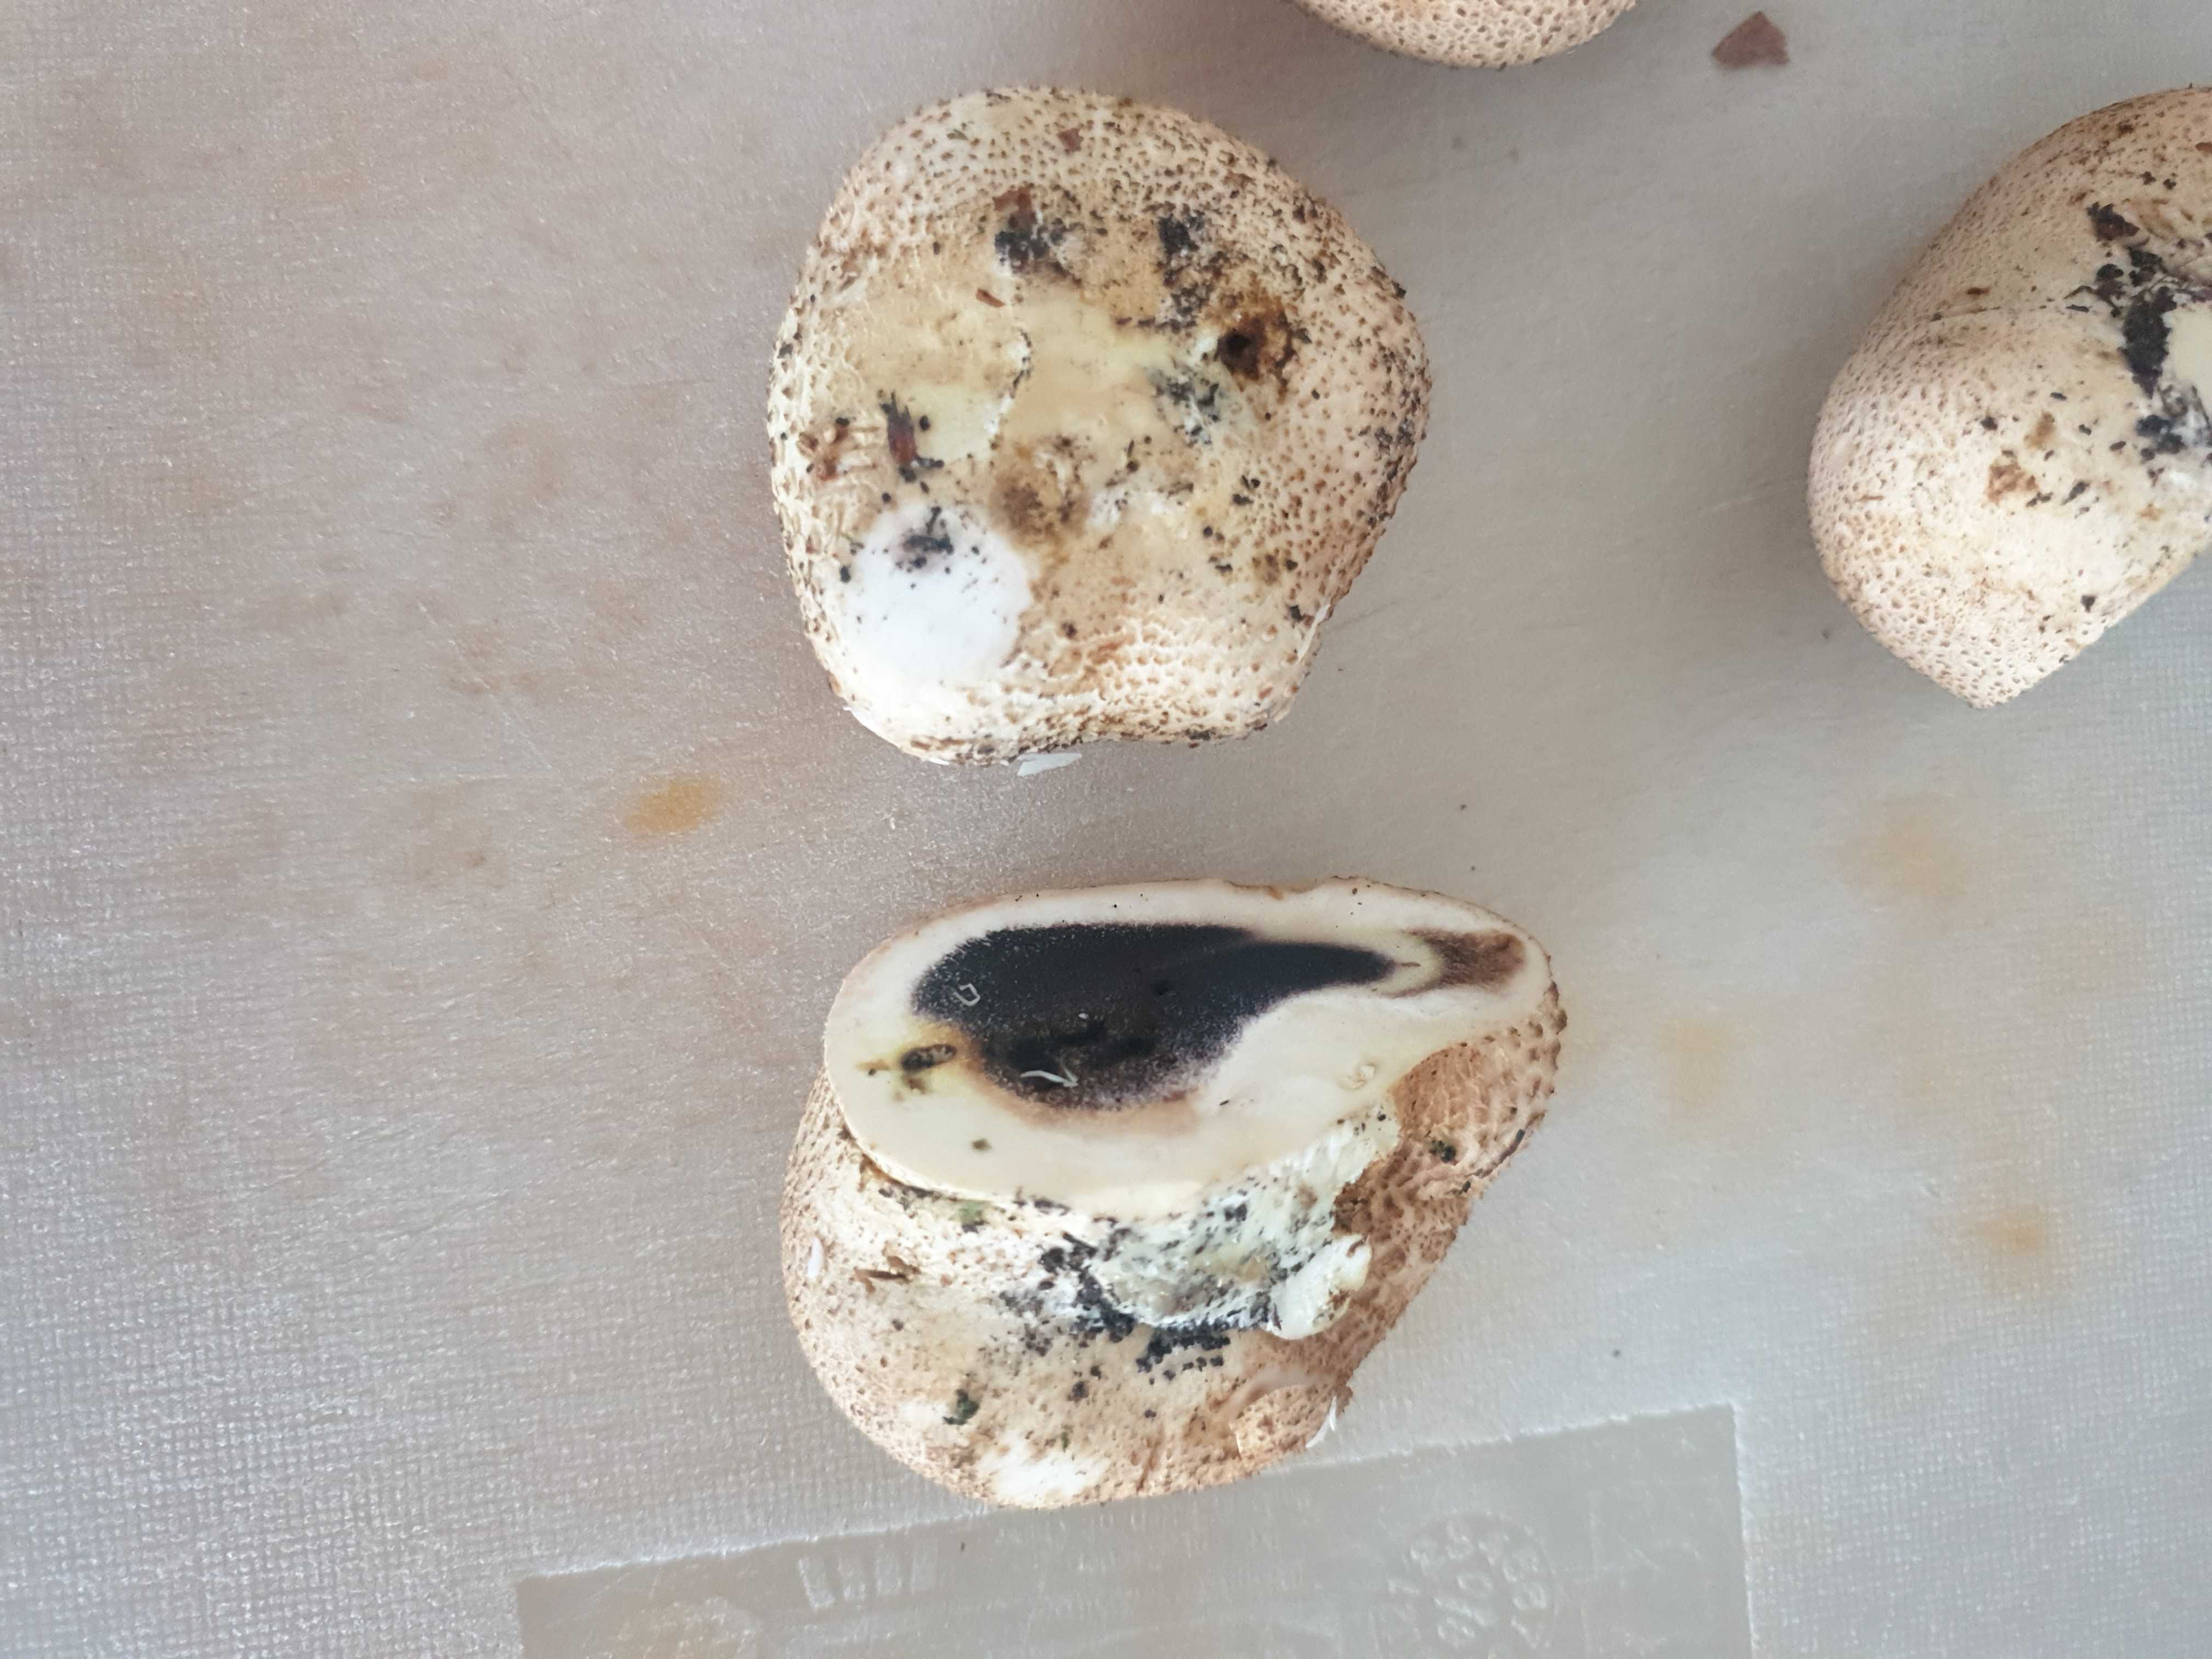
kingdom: Fungi
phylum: Basidiomycota
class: Agaricomycetes
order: Boletales
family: Sclerodermataceae
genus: Scleroderma
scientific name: Scleroderma citrinum
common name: almindelig bruskbold
